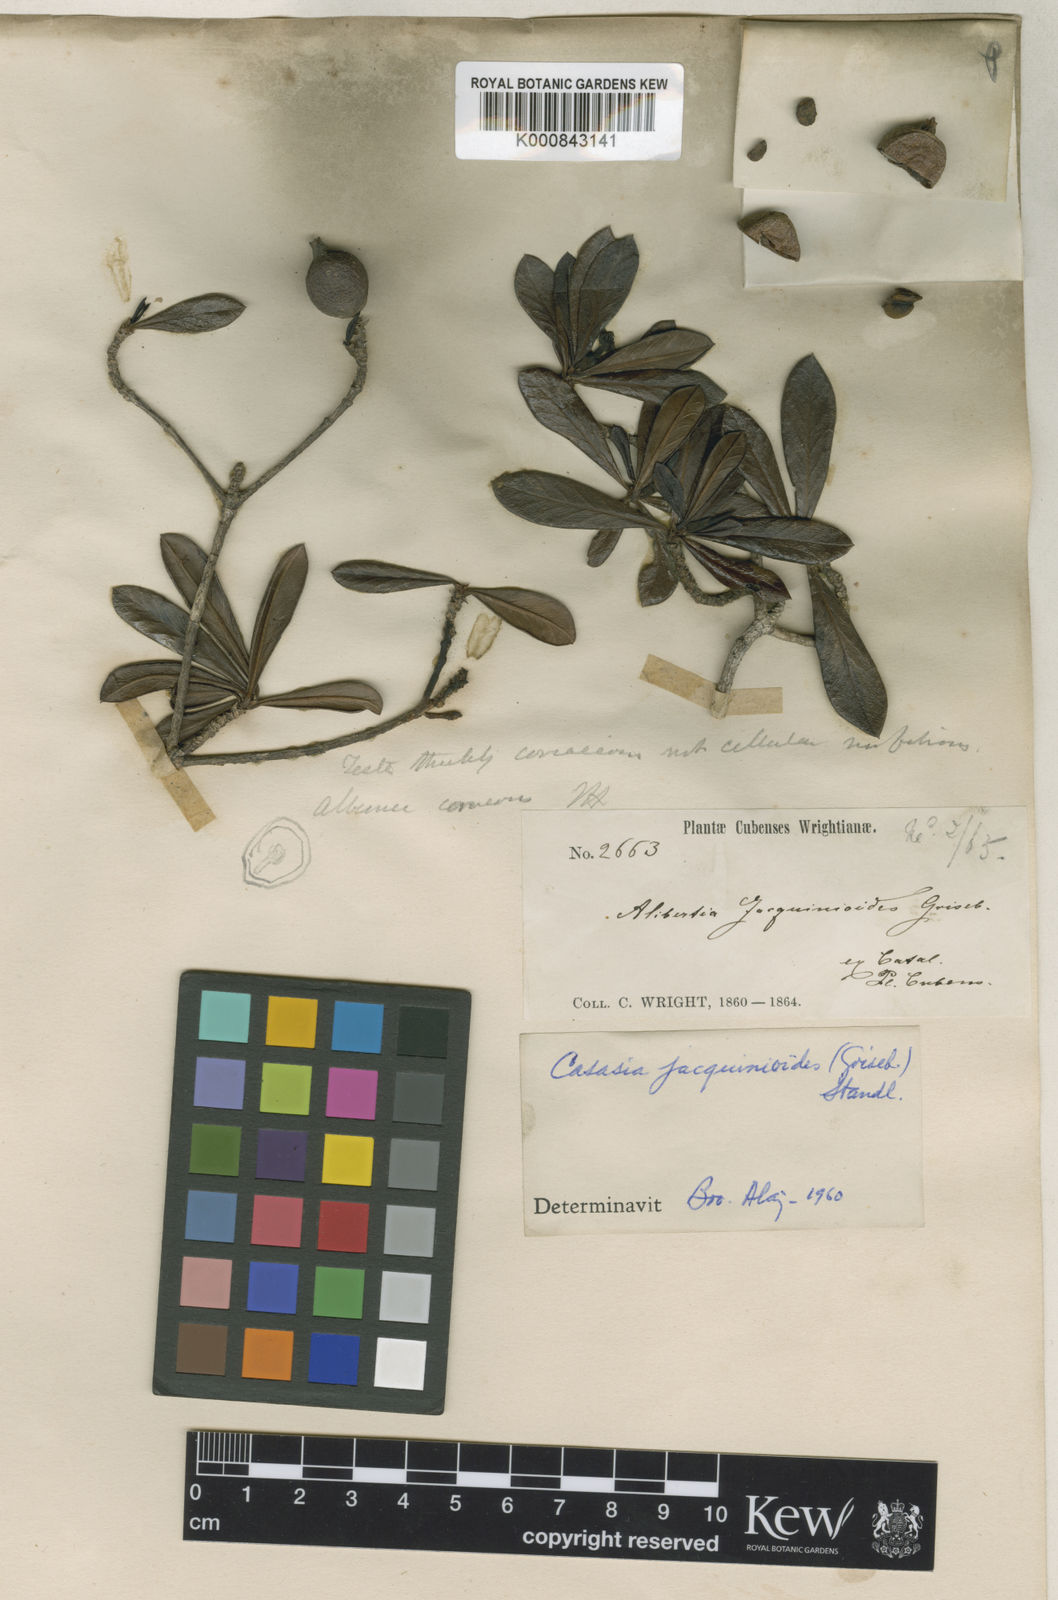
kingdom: Plantae
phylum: Tracheophyta
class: Magnoliopsida
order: Gentianales
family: Rubiaceae
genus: Casasia
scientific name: Casasia jacquinioides
